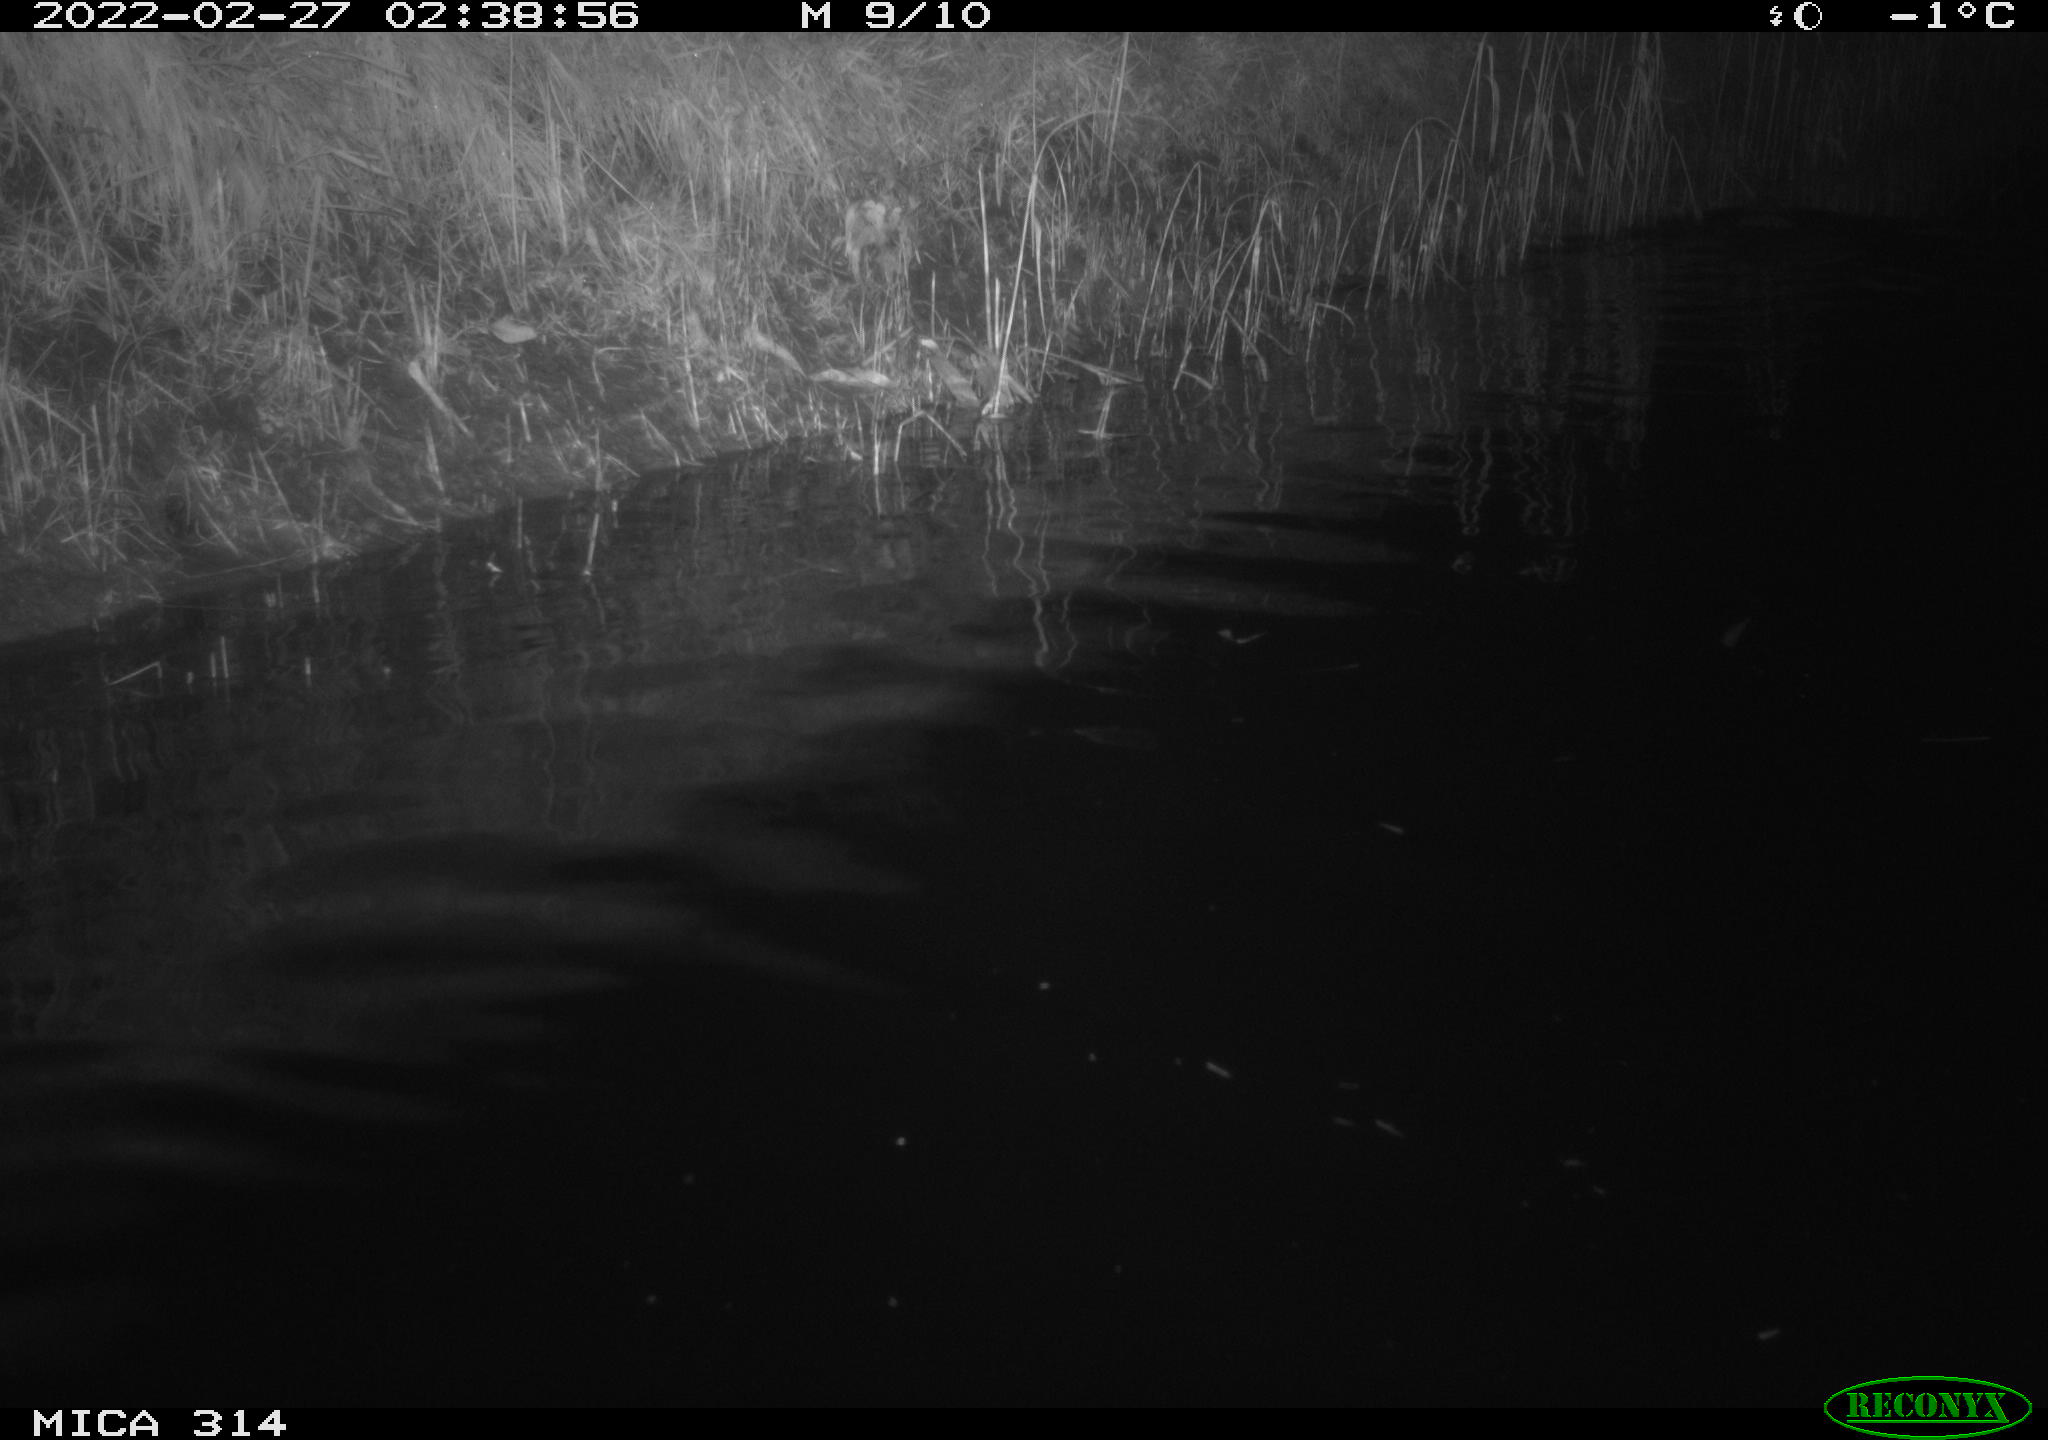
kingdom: Animalia
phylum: Chordata
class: Mammalia
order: Rodentia
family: Cricetidae
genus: Ondatra
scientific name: Ondatra zibethicus
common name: Muskrat
